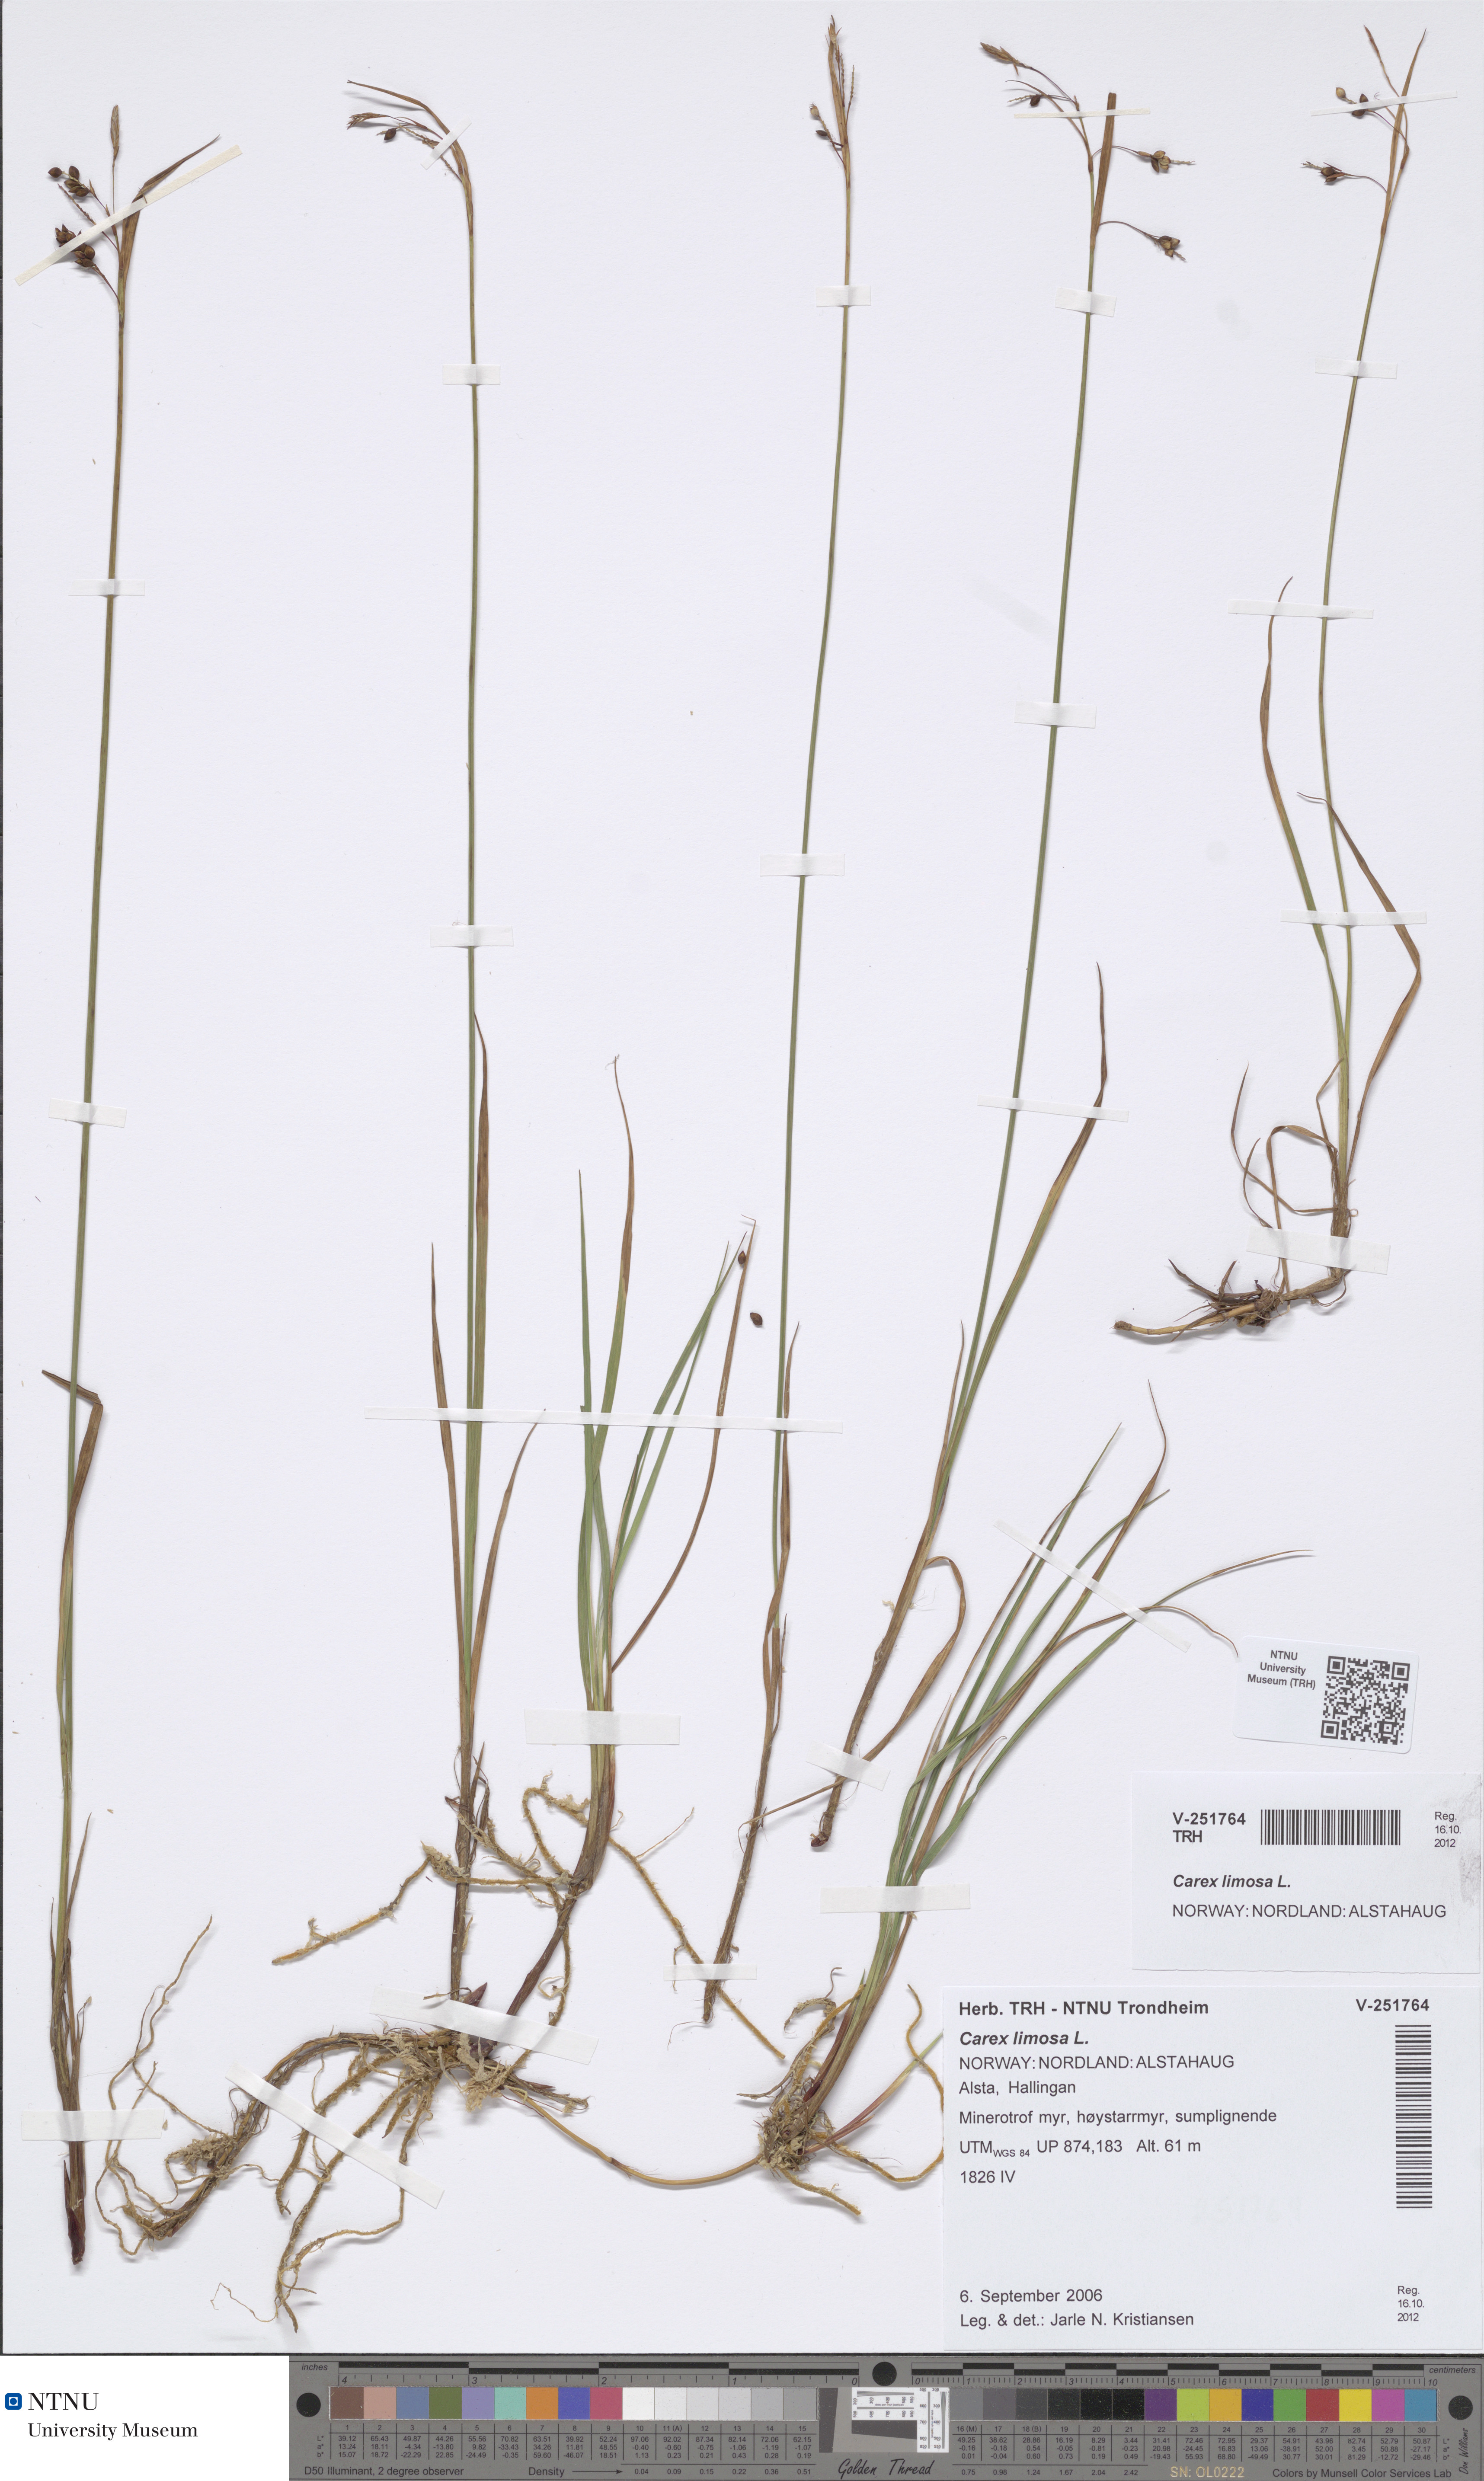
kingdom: Plantae
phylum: Tracheophyta
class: Liliopsida
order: Poales
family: Cyperaceae
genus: Carex
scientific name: Carex limosa
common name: Bog sedge
